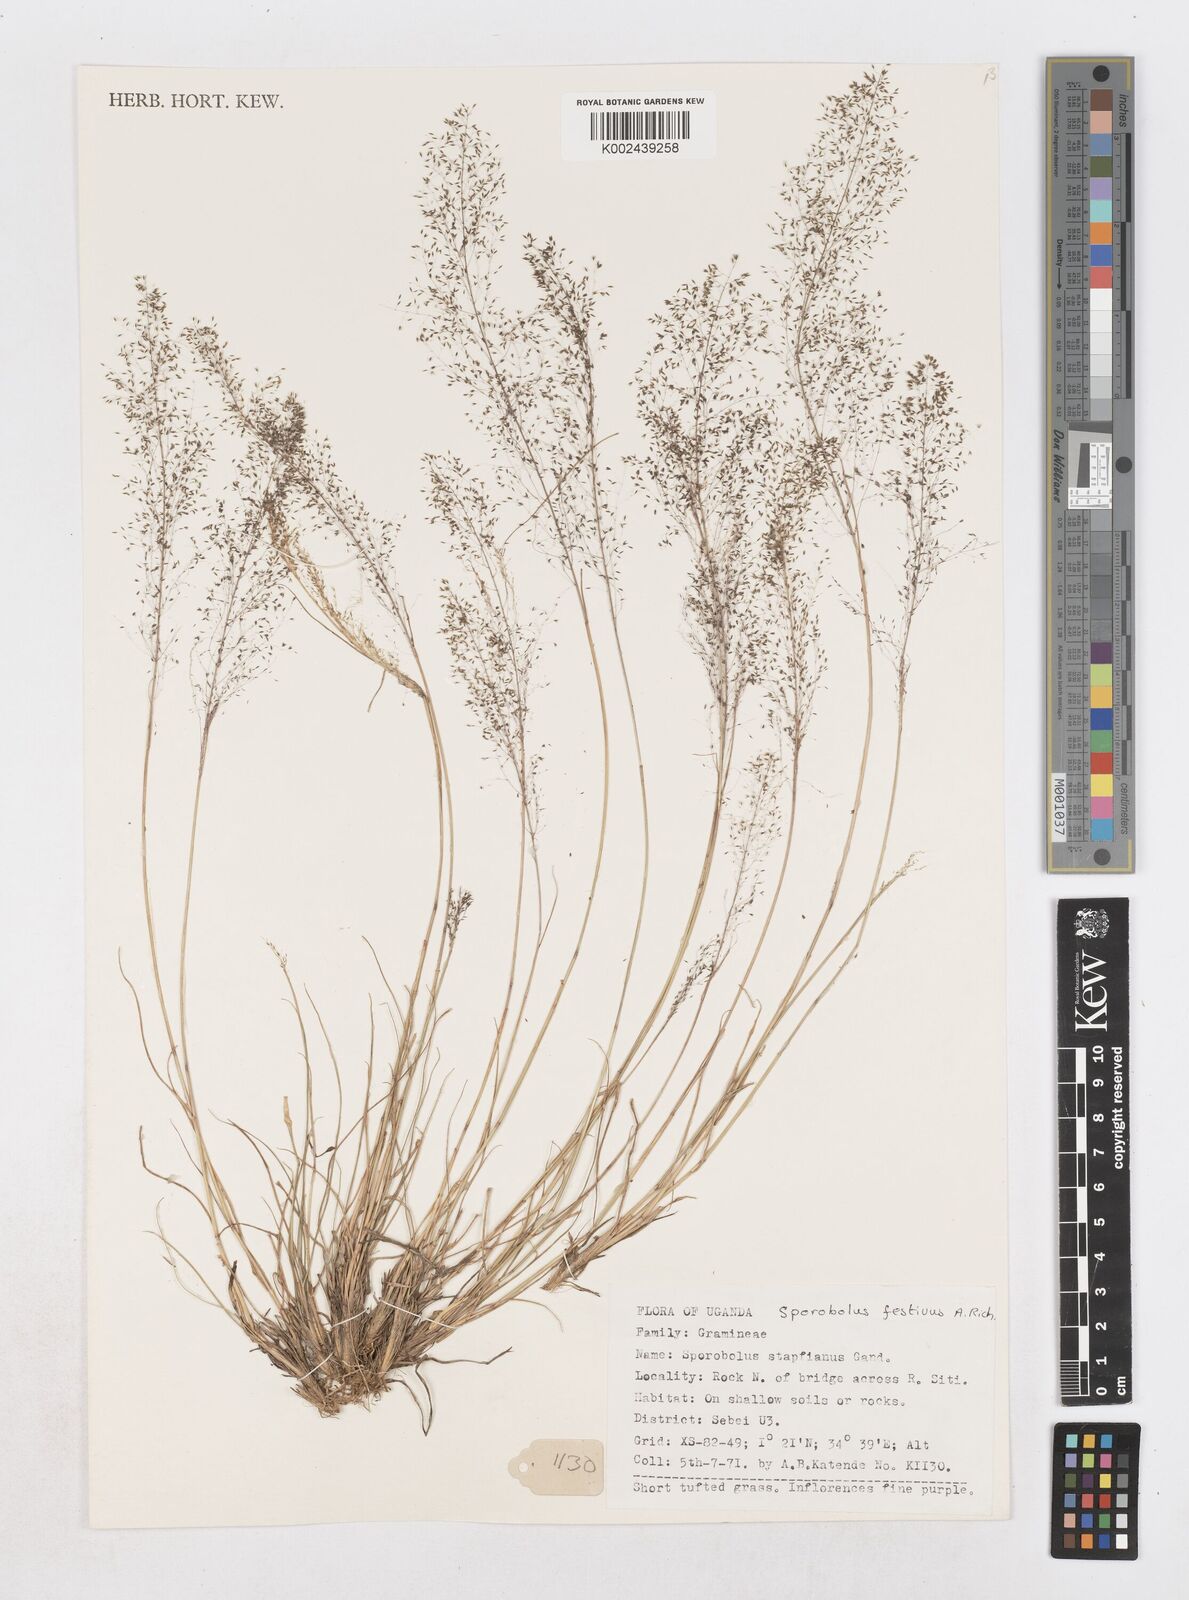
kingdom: Plantae
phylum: Tracheophyta
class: Liliopsida
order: Poales
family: Poaceae
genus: Sporobolus
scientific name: Sporobolus festivus
